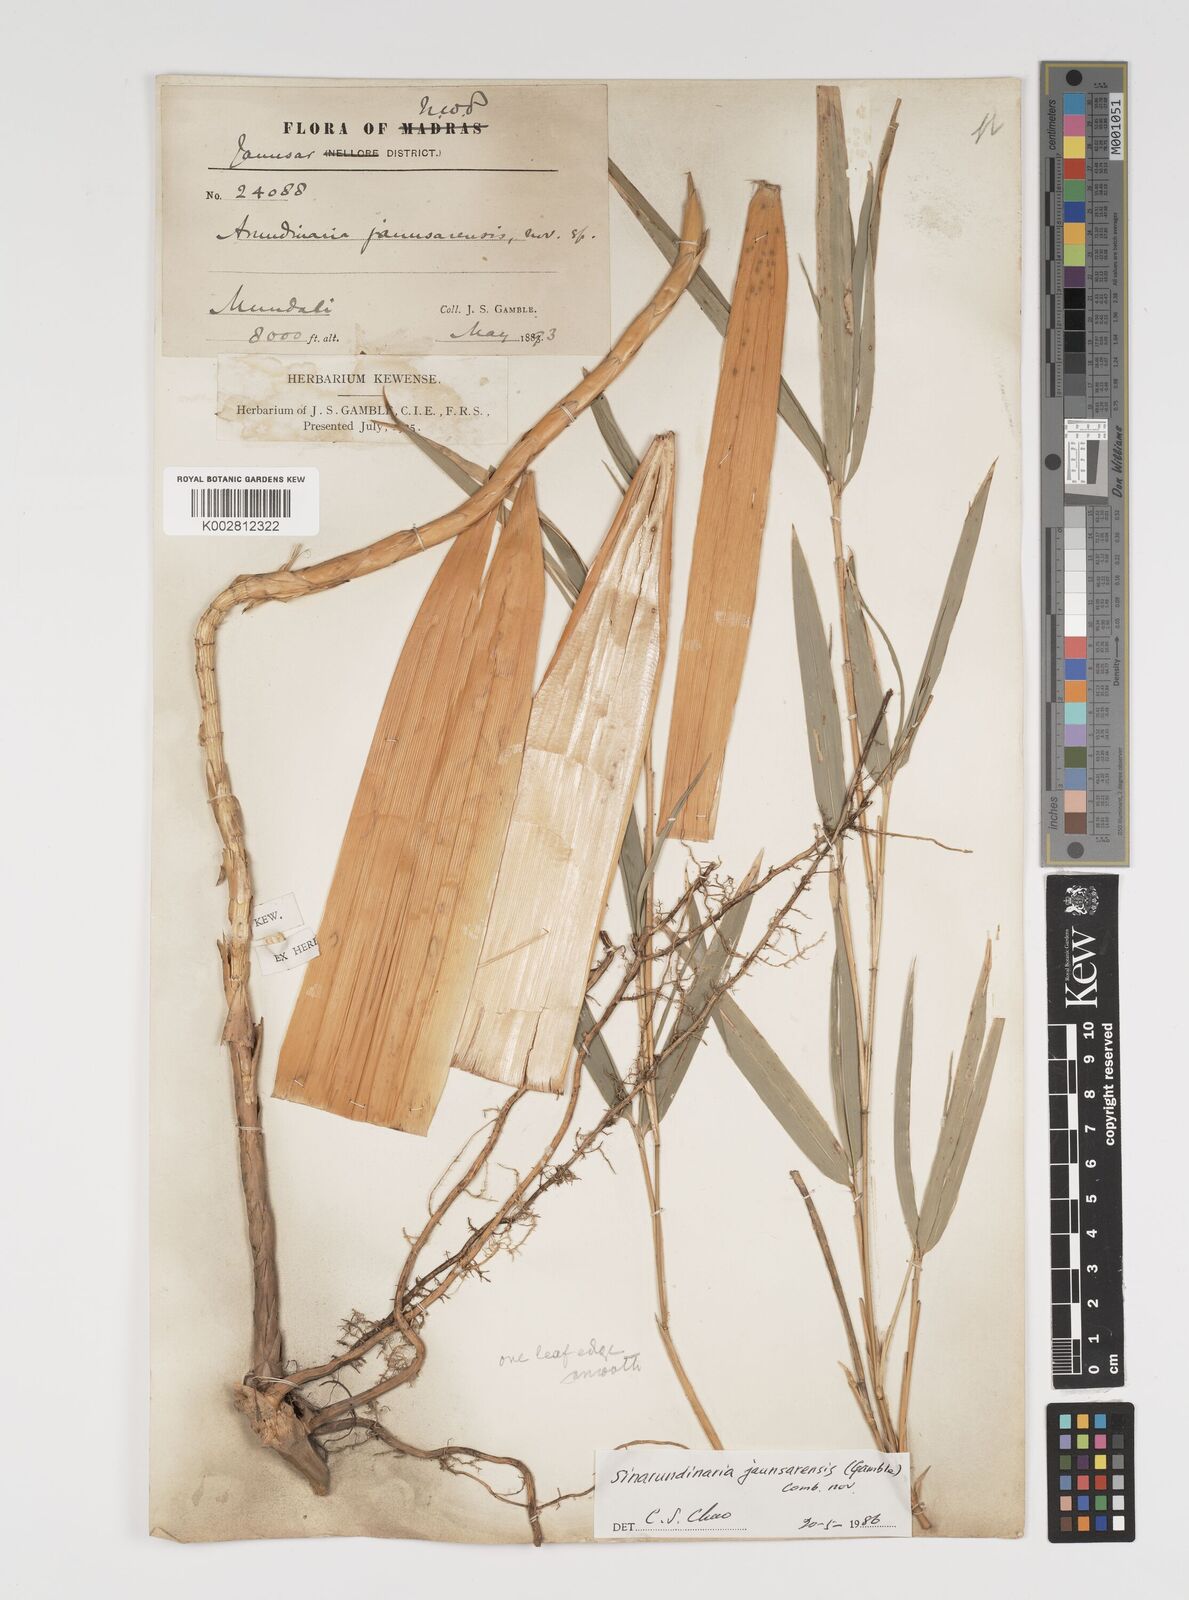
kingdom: Plantae
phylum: Tracheophyta
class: Liliopsida
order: Poales
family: Poaceae
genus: Yushania
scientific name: Yushania anceps
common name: Indian fountain-bamboo
